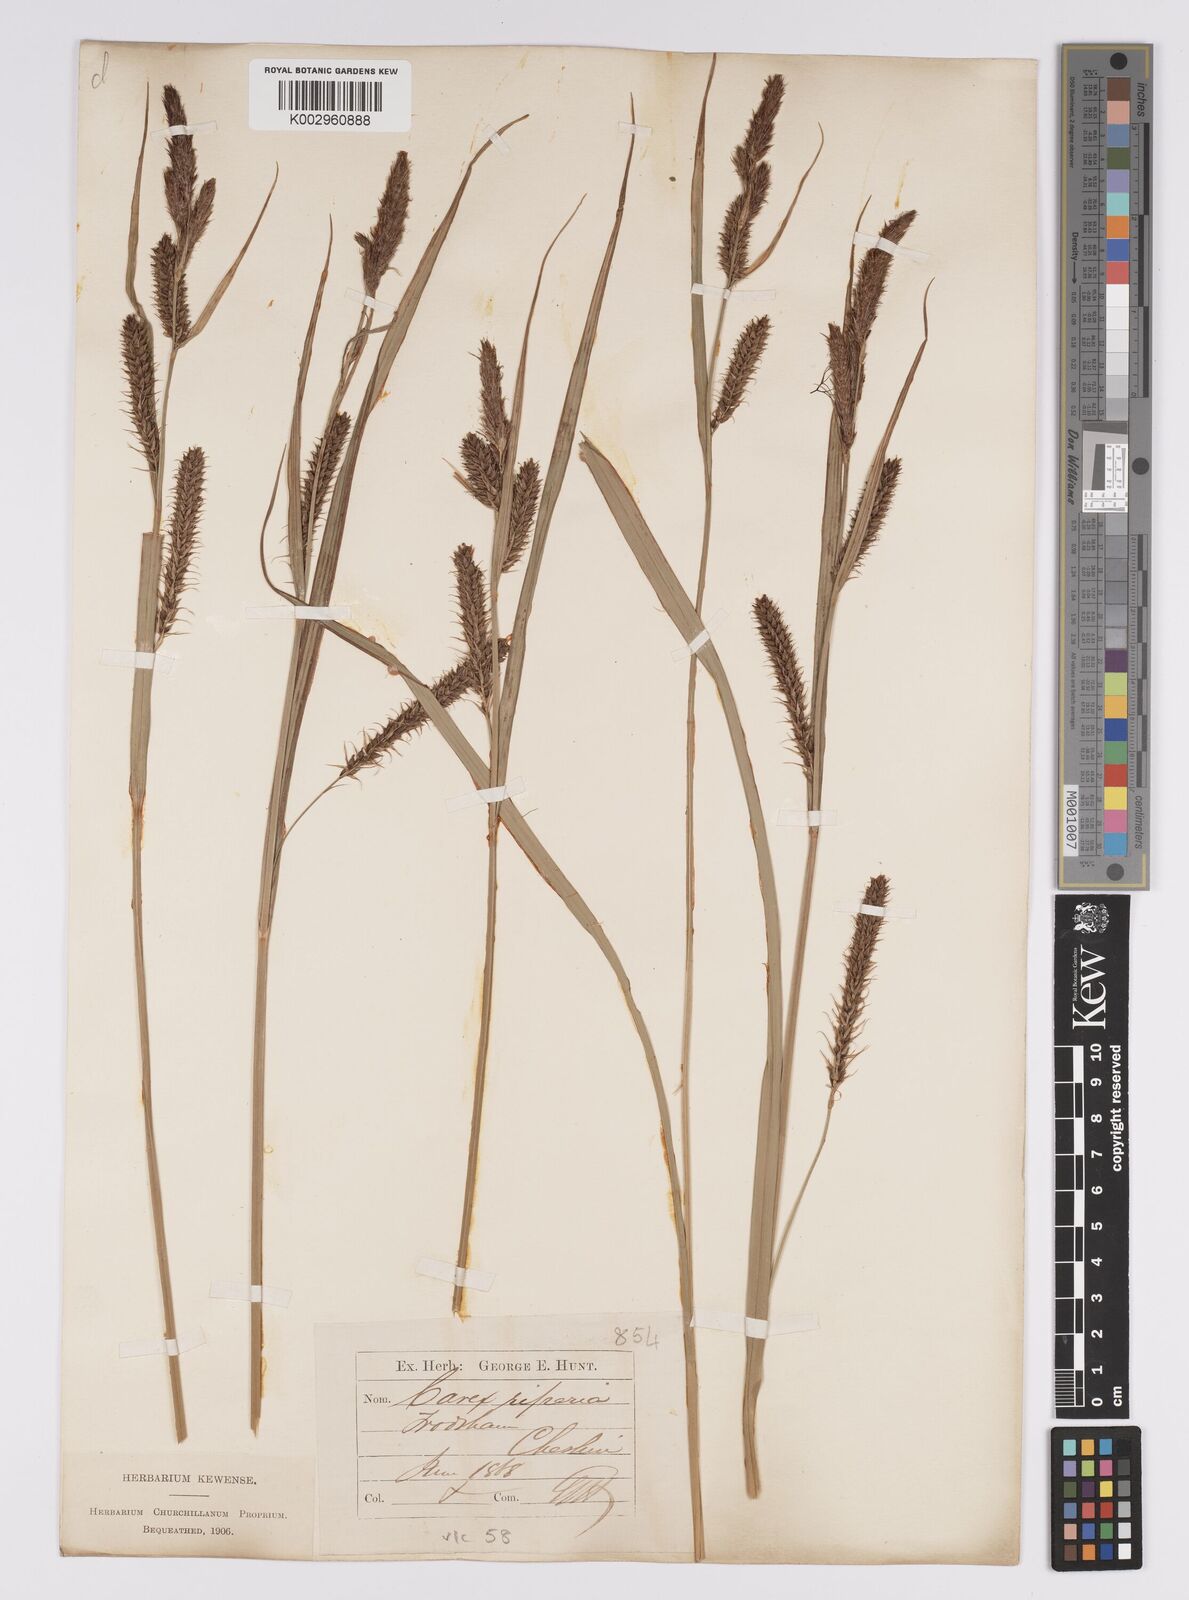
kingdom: Plantae
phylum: Tracheophyta
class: Liliopsida
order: Poales
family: Cyperaceae
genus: Carex
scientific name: Carex riparia
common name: Greater pond-sedge
